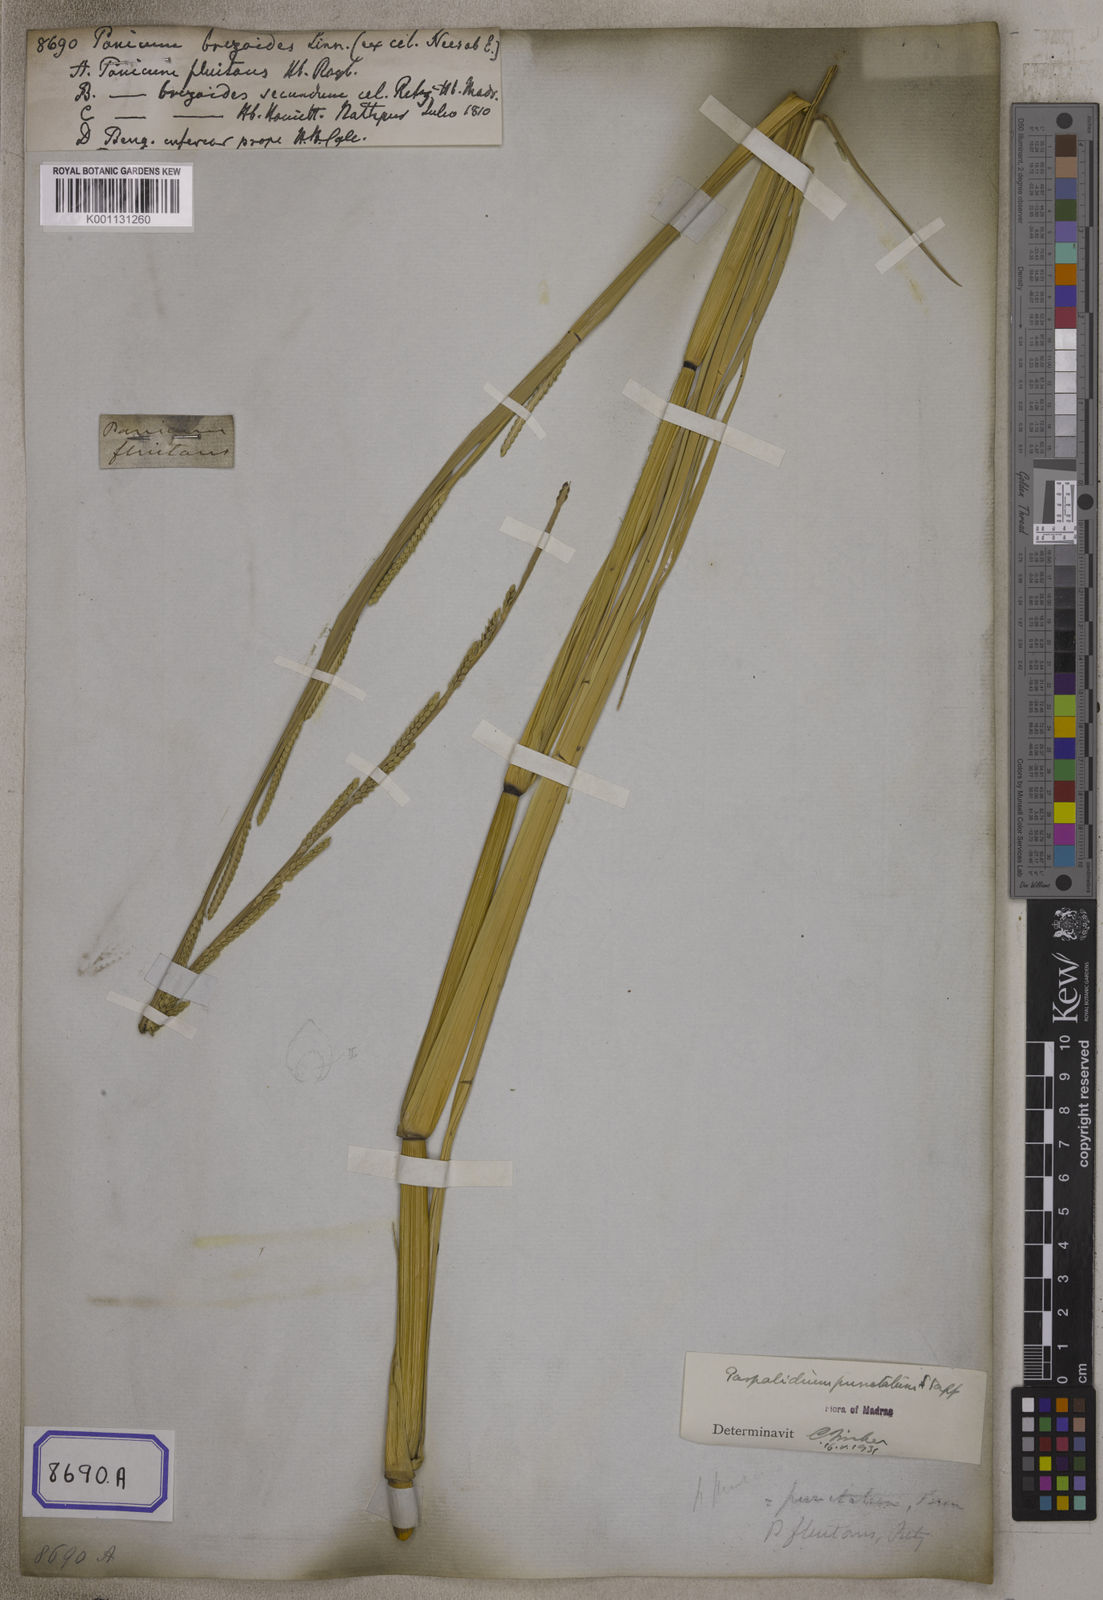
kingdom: Plantae
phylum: Tracheophyta
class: Liliopsida
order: Poales
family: Poaceae
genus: Echinochloa
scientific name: Echinochloa colonum
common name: Jungle rice
